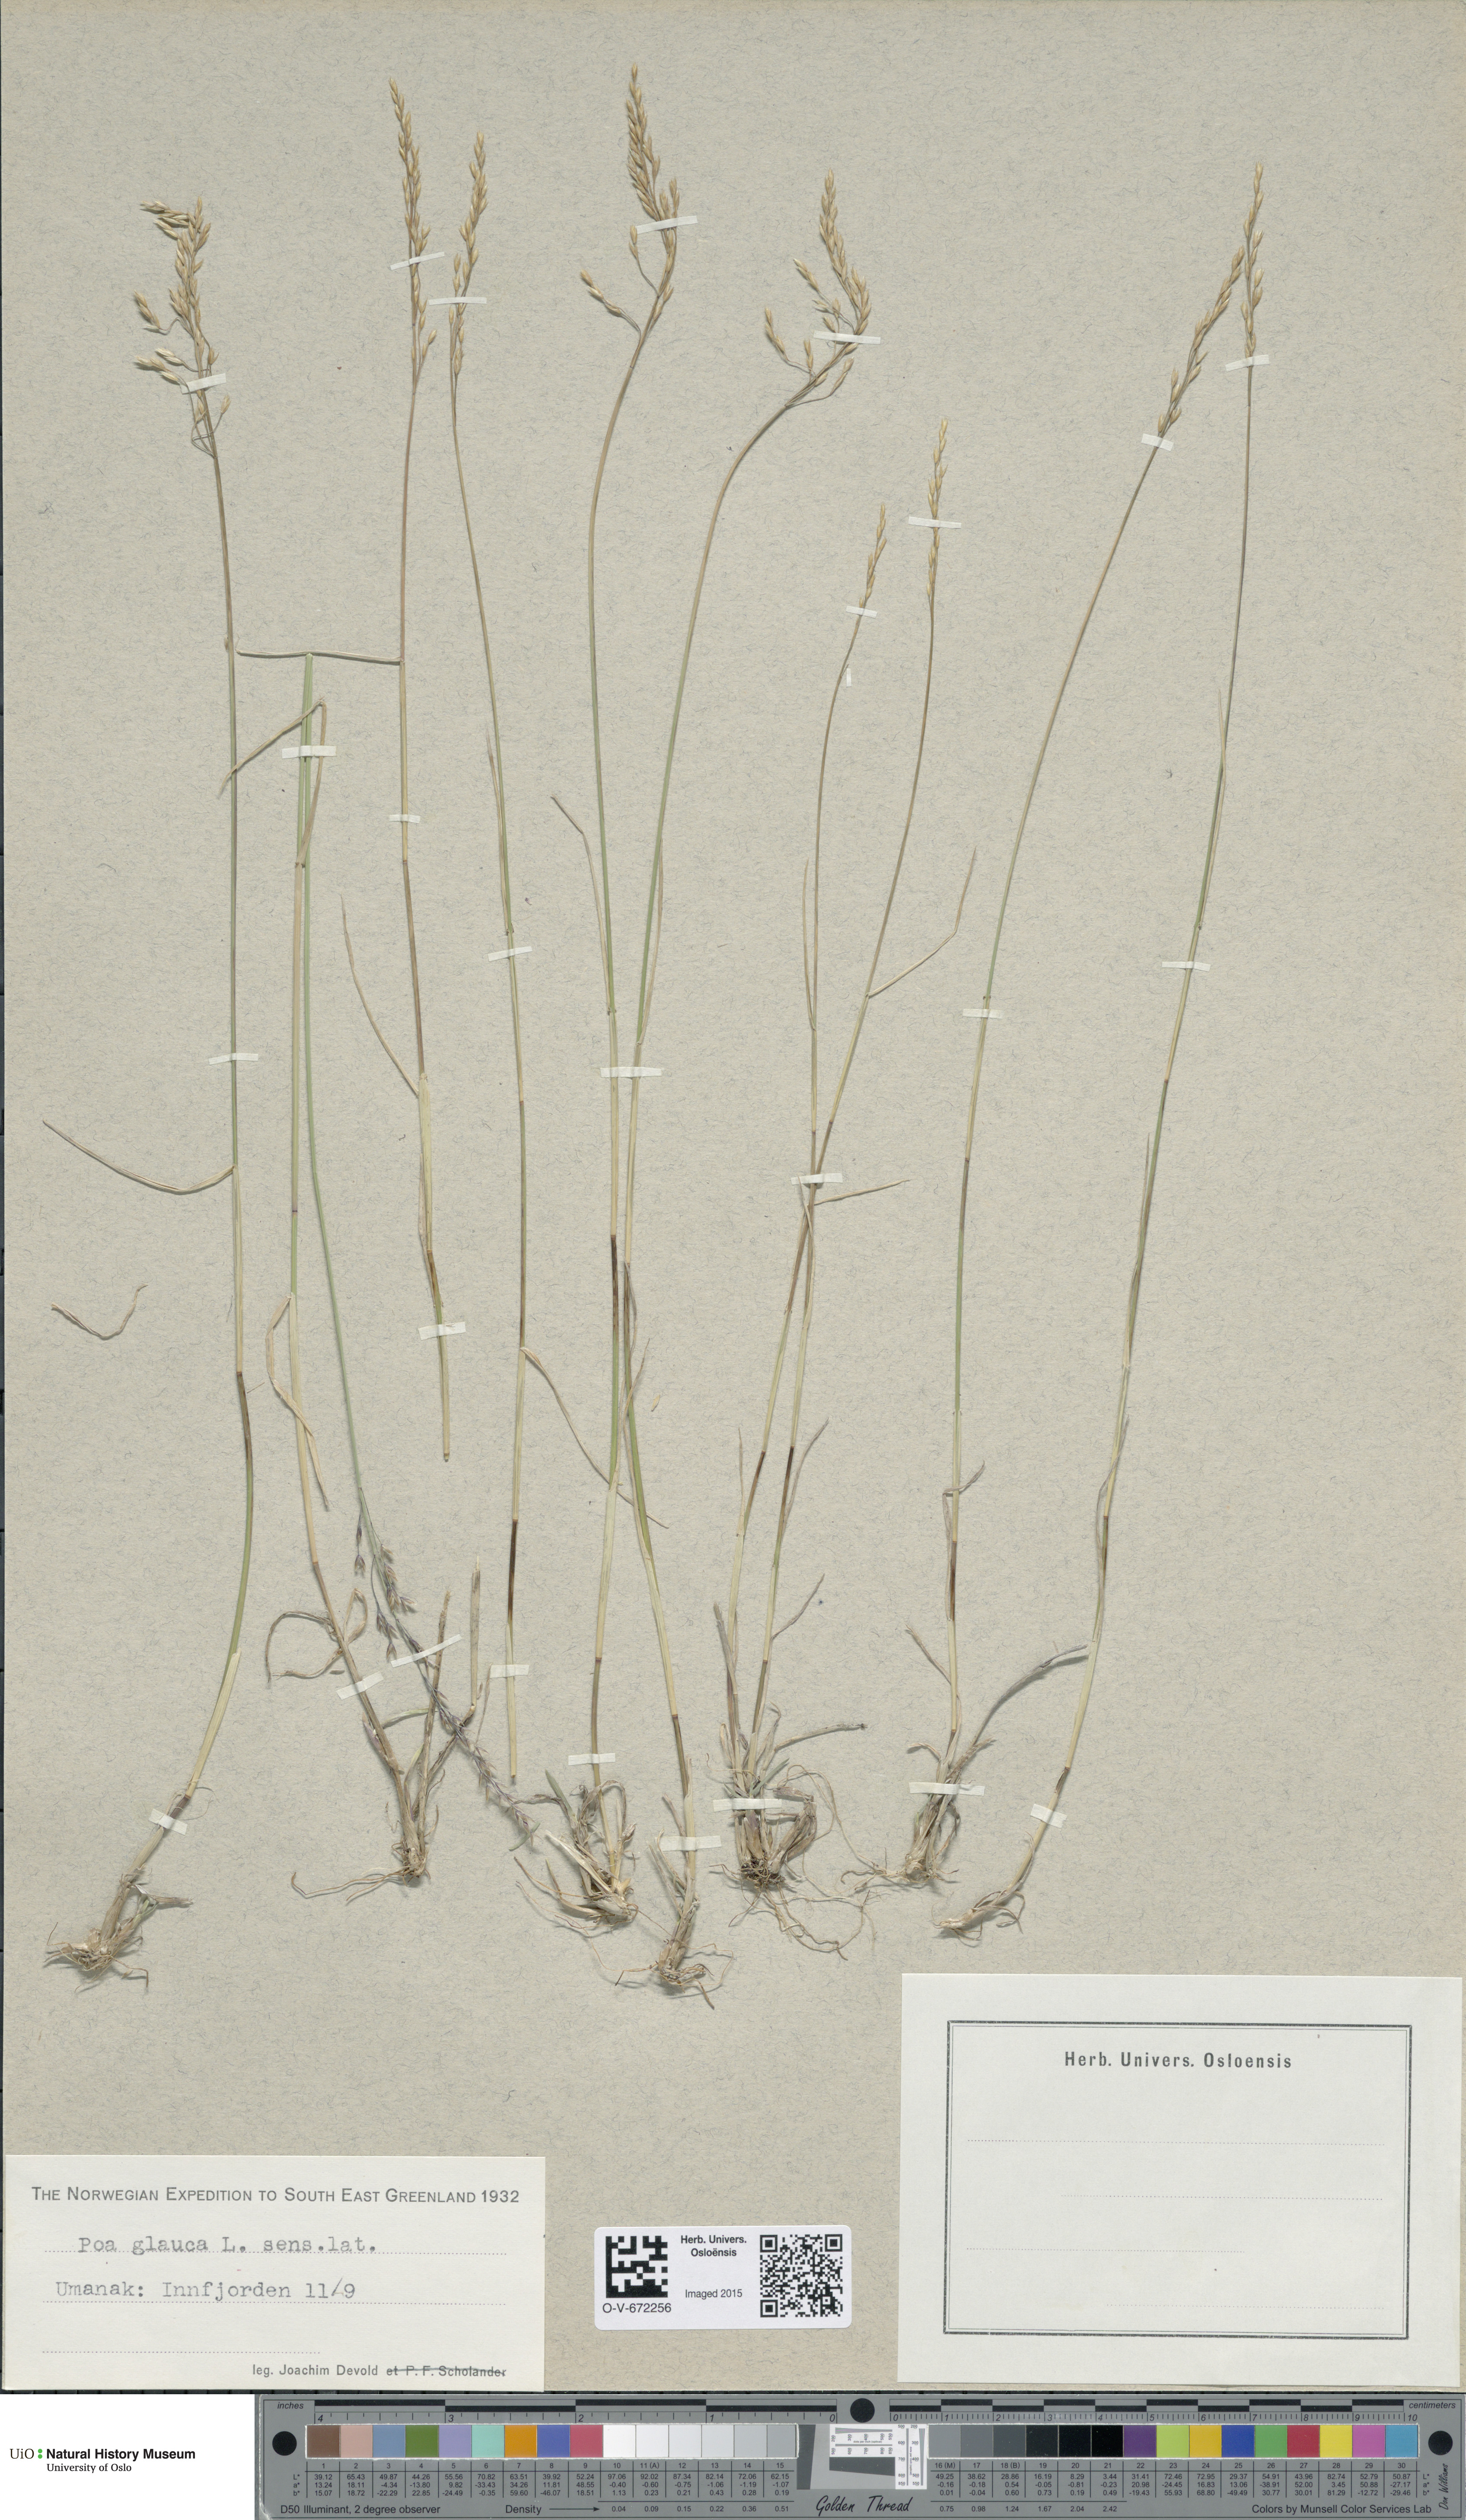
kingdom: Plantae
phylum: Tracheophyta
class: Liliopsida
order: Poales
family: Poaceae
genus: Poa
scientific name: Poa glauca
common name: Glaucous bluegrass
